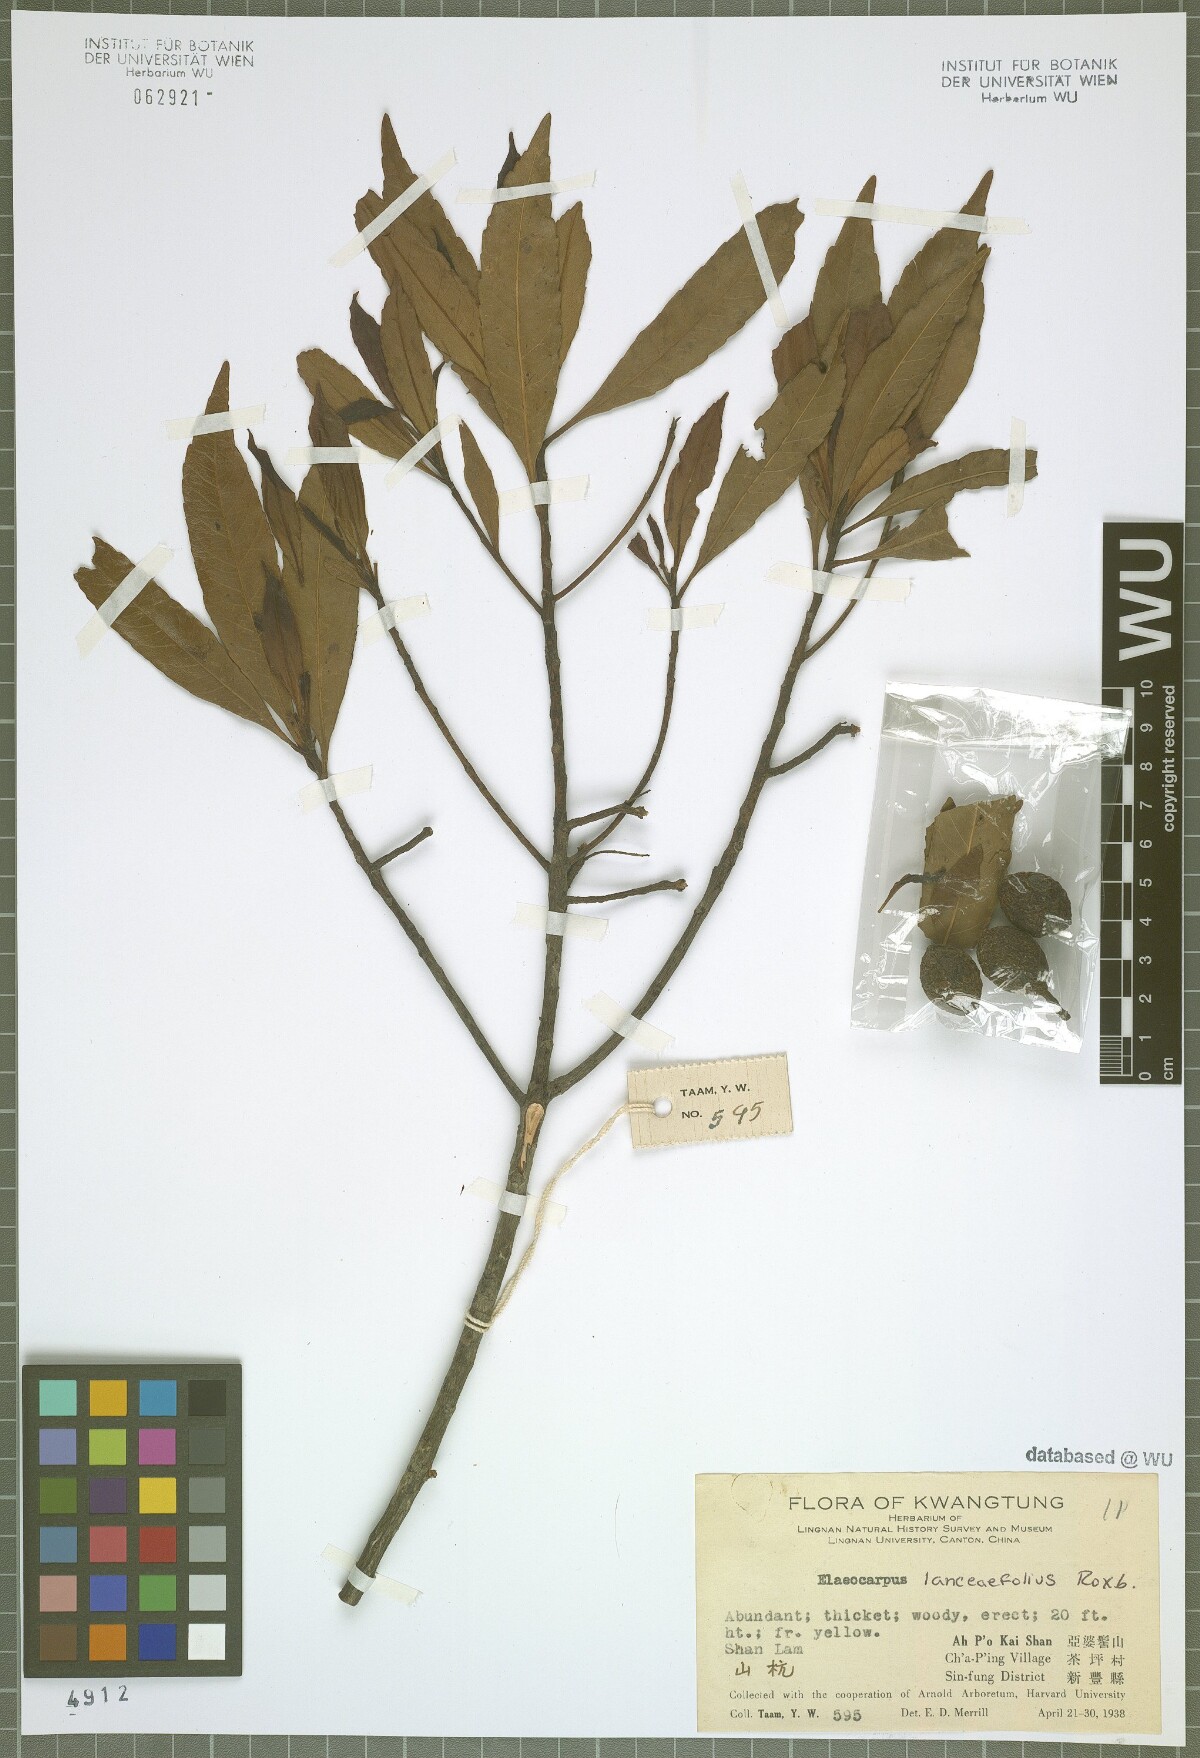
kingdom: Plantae
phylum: Tracheophyta
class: Magnoliopsida
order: Oxalidales
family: Elaeocarpaceae
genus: Elaeocarpus
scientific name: Elaeocarpus lanceifolius
